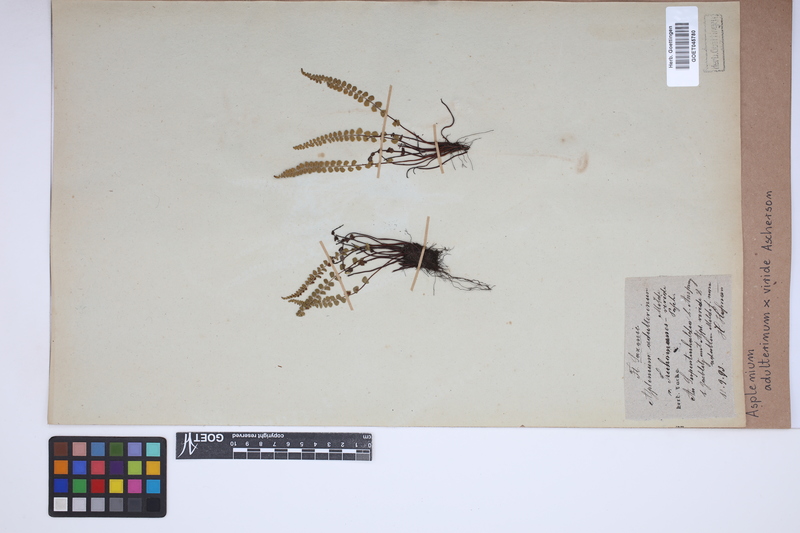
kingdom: Plantae
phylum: Tracheophyta
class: Polypodiopsida
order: Polypodiales
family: Aspleniaceae
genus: Asplenium
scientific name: Asplenium
